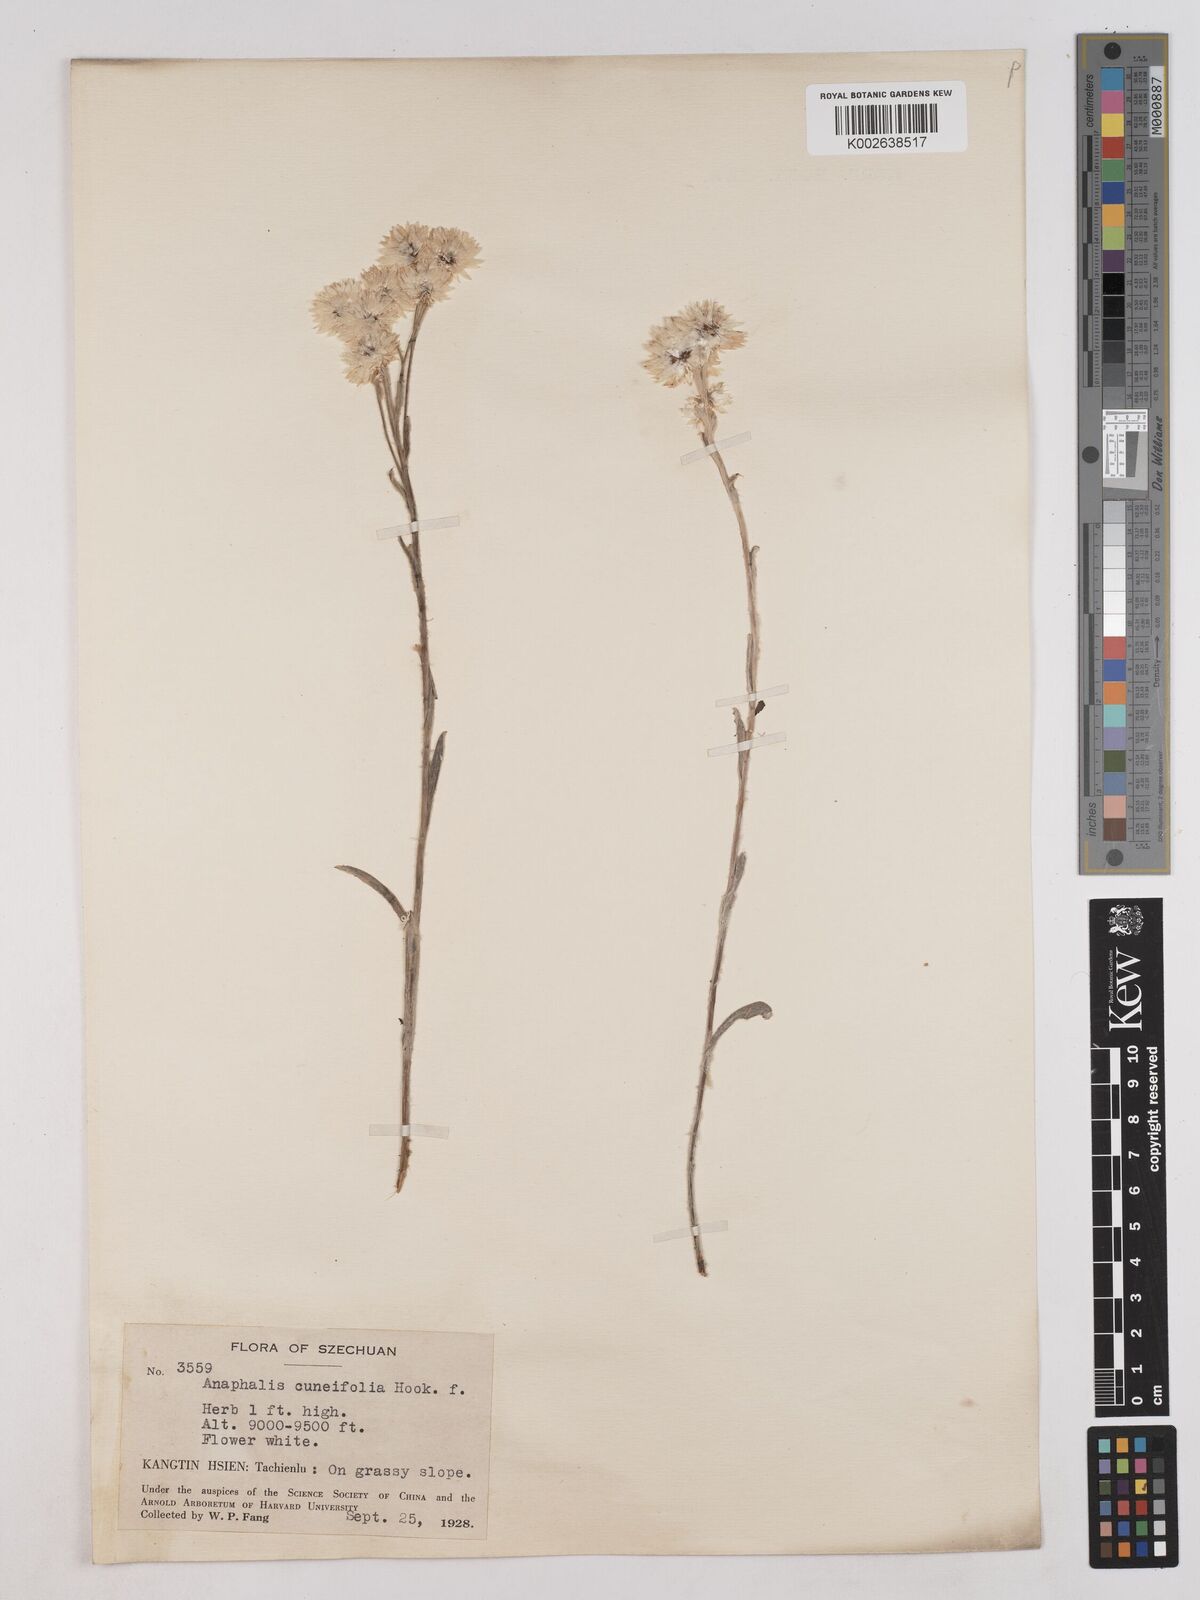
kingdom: Plantae
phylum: Tracheophyta
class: Magnoliopsida
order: Asterales
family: Asteraceae
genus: Anaphalis
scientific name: Anaphalis nepalensis
